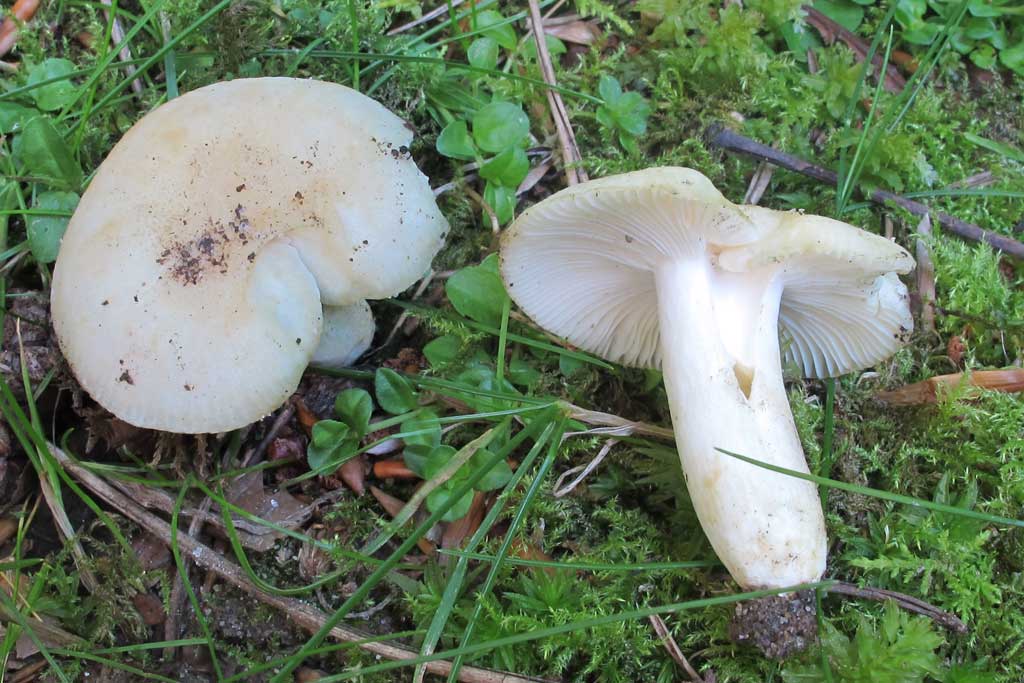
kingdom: Fungi
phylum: Basidiomycota
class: Agaricomycetes
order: Russulales
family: Russulaceae
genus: Russula
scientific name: Russula farinipes
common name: gul kam-skørhat
